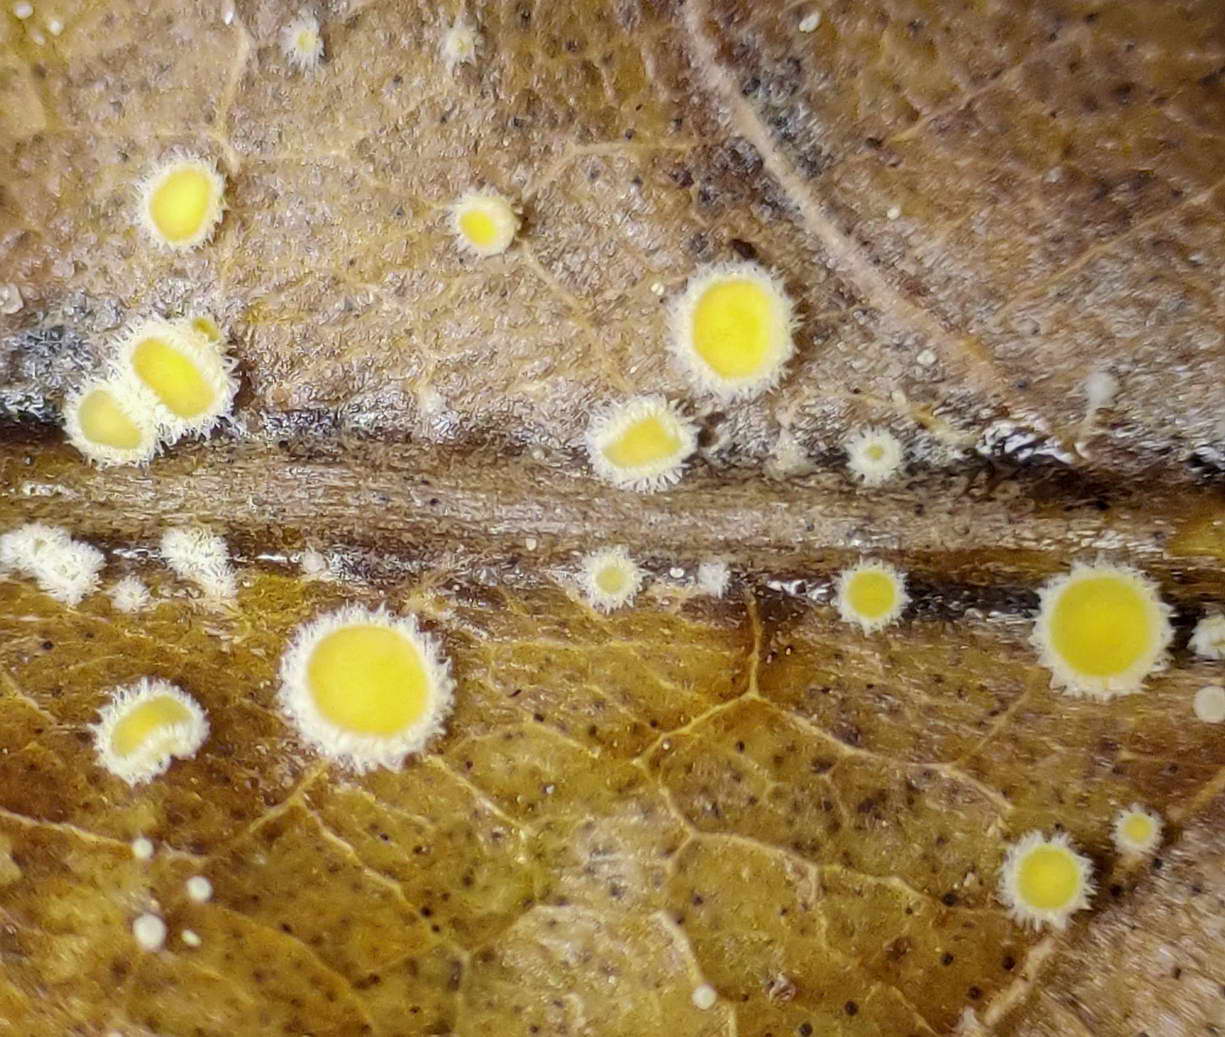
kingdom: Fungi
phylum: Ascomycota
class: Leotiomycetes
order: Helotiales
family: Lachnaceae
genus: Lachnum
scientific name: Lachnum patulum
